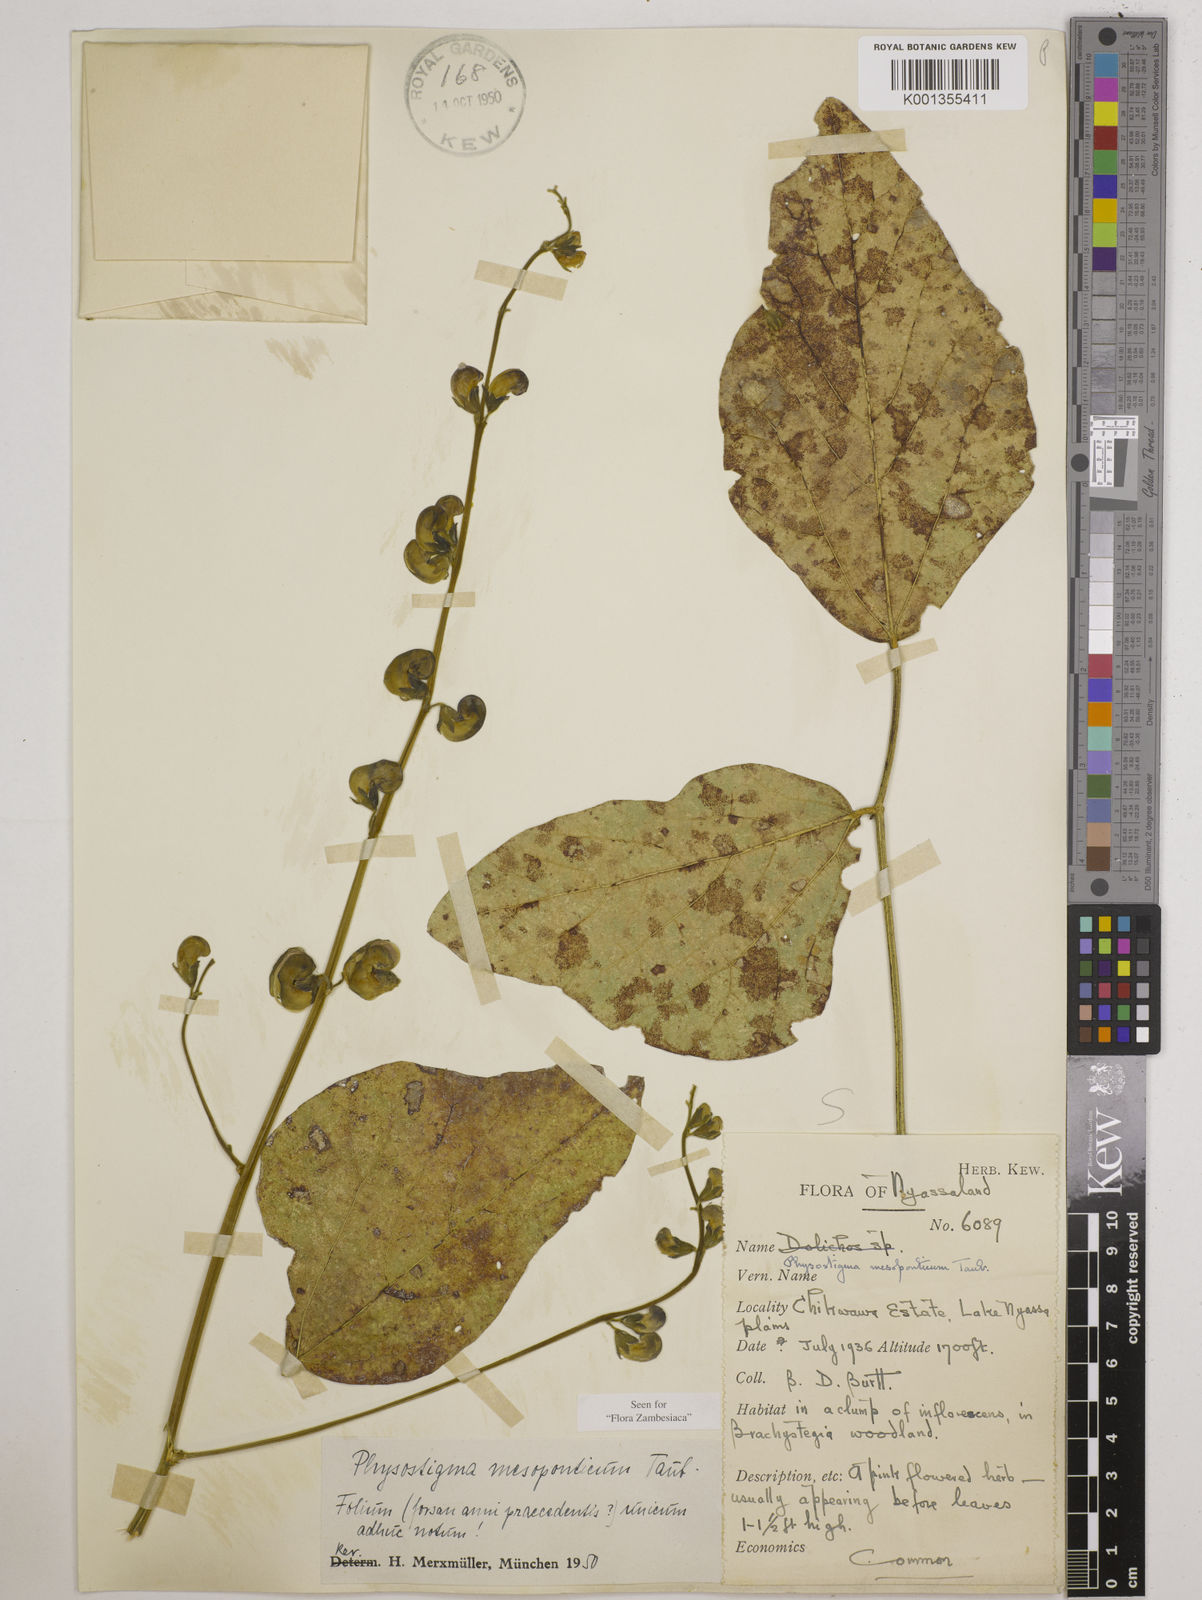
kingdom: Plantae
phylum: Tracheophyta
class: Magnoliopsida
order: Fabales
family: Fabaceae
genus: Physostigma
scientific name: Physostigma mesoponticum
